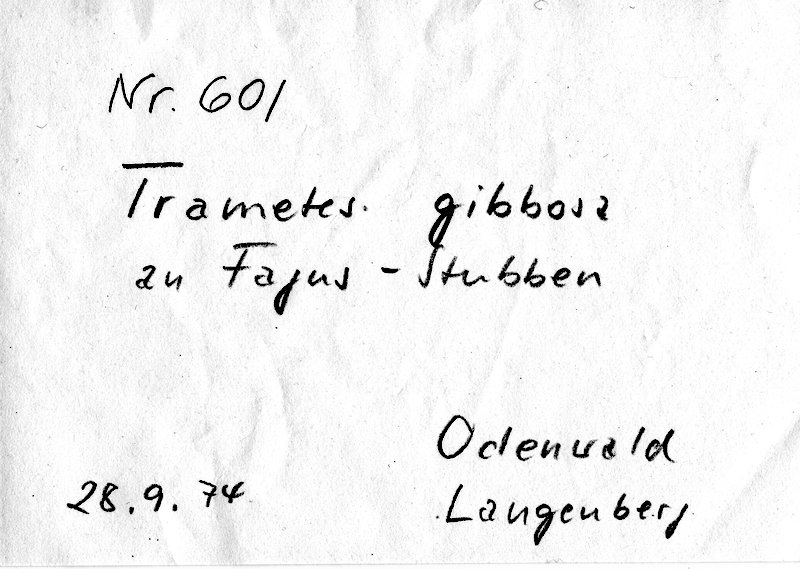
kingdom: Plantae
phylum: Tracheophyta
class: Magnoliopsida
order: Fagales
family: Fagaceae
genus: Fagus
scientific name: Fagus sylvatica
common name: Beech
